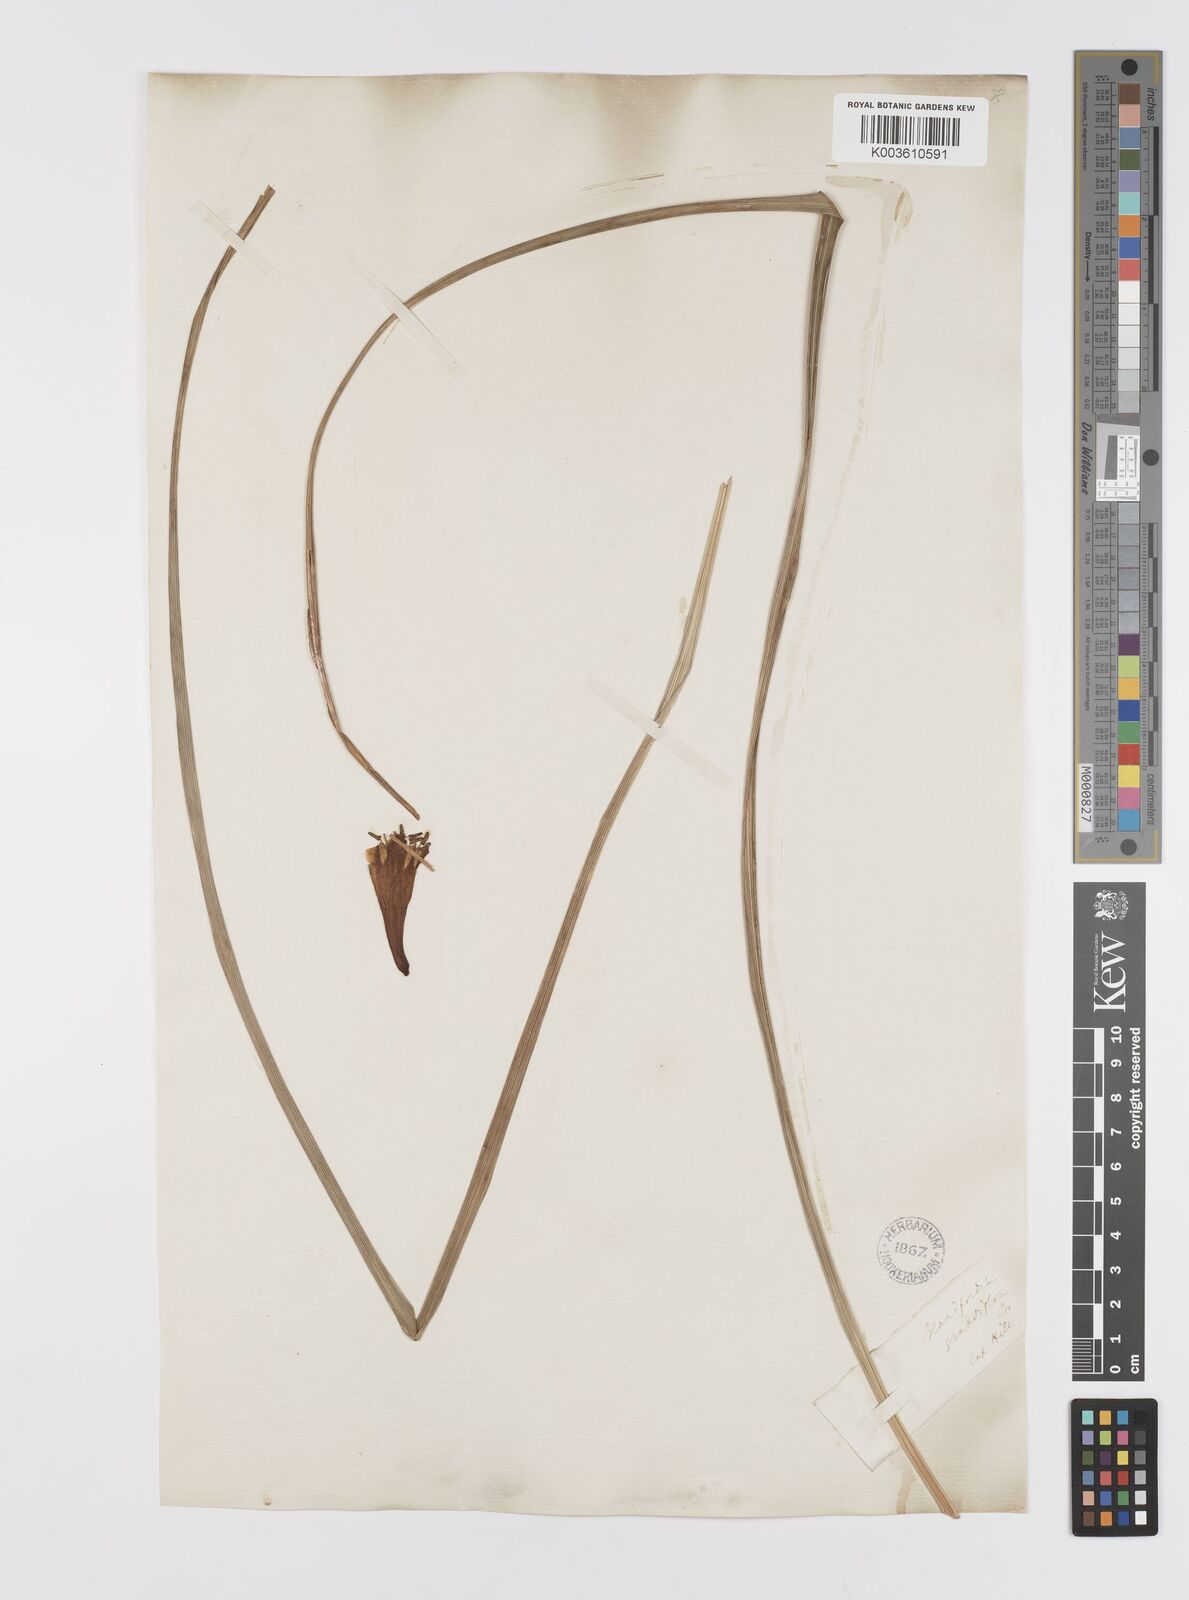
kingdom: Plantae
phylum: Tracheophyta
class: Liliopsida
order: Asparagales
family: Blandfordiaceae
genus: Blandfordia
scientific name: Blandfordia cunninghamii
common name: Christmas-bell
